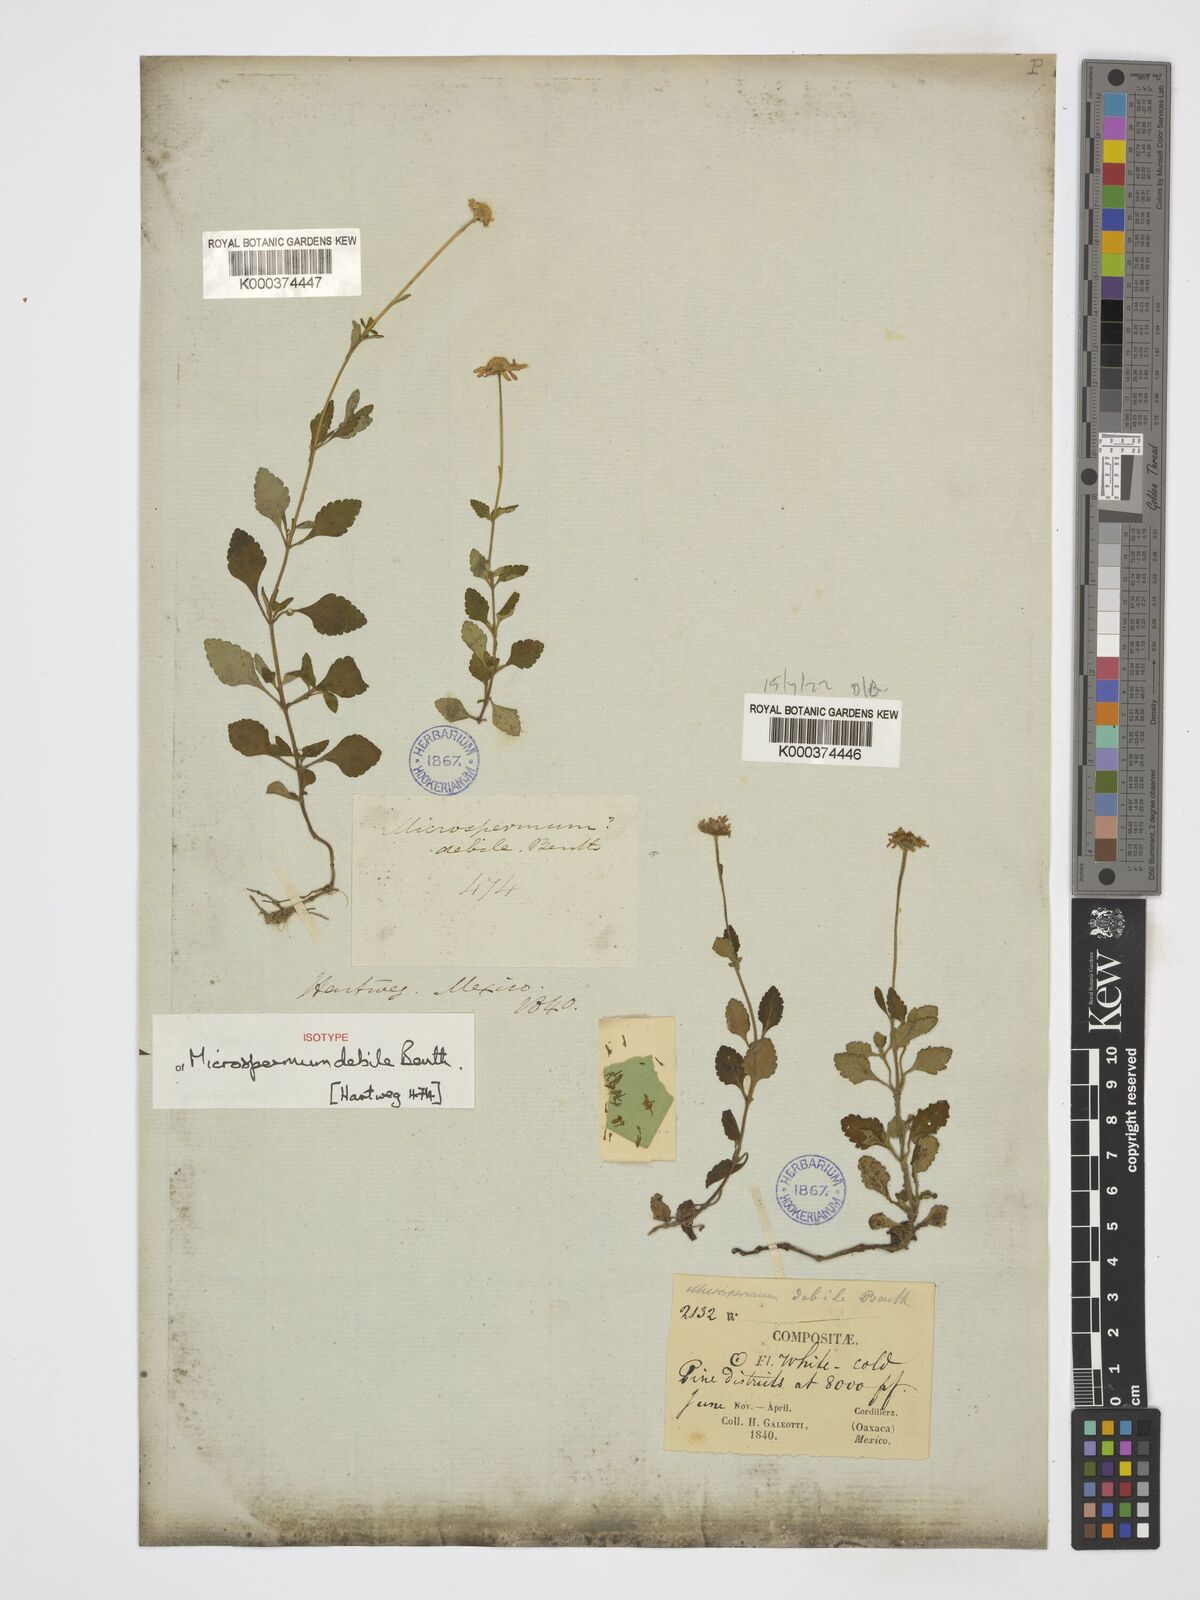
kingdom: Plantae
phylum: Tracheophyta
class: Magnoliopsida
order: Asterales
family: Asteraceae
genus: Microspermum
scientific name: Microspermum debile
